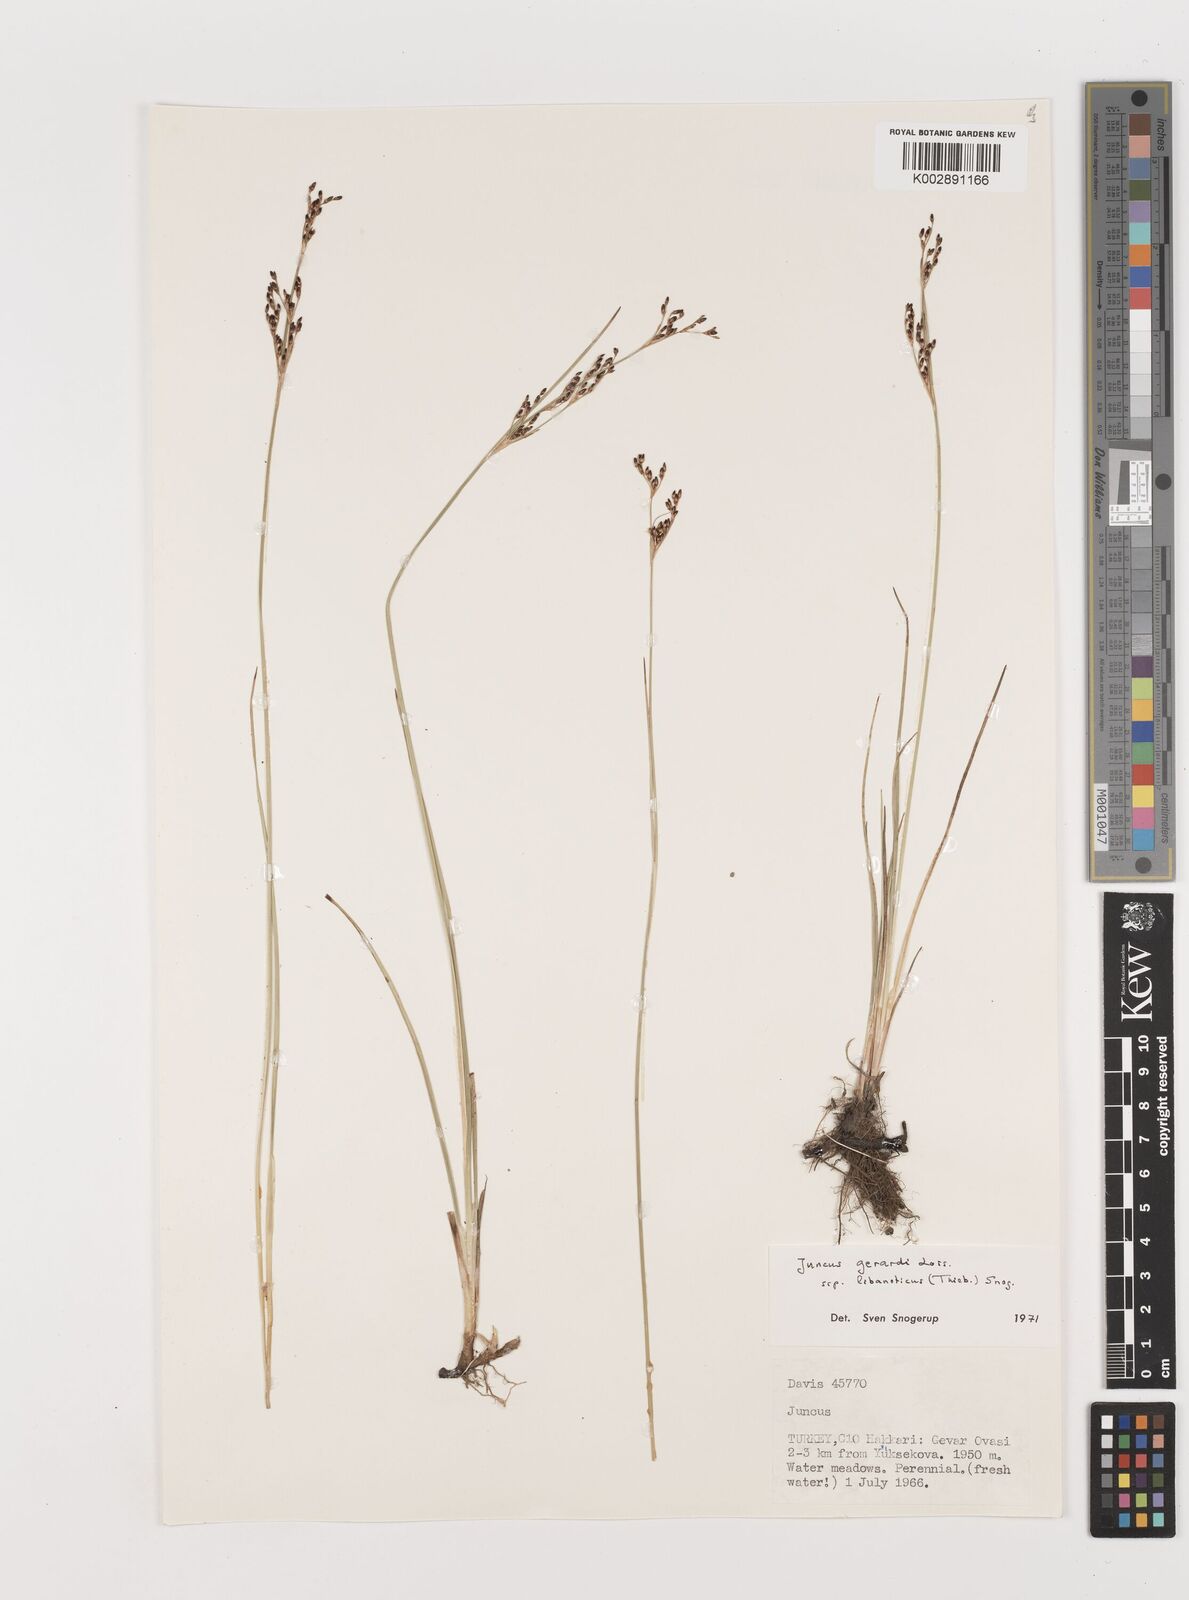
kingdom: Plantae
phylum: Tracheophyta
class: Liliopsida
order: Poales
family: Juncaceae
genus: Juncus
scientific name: Juncus persicus
